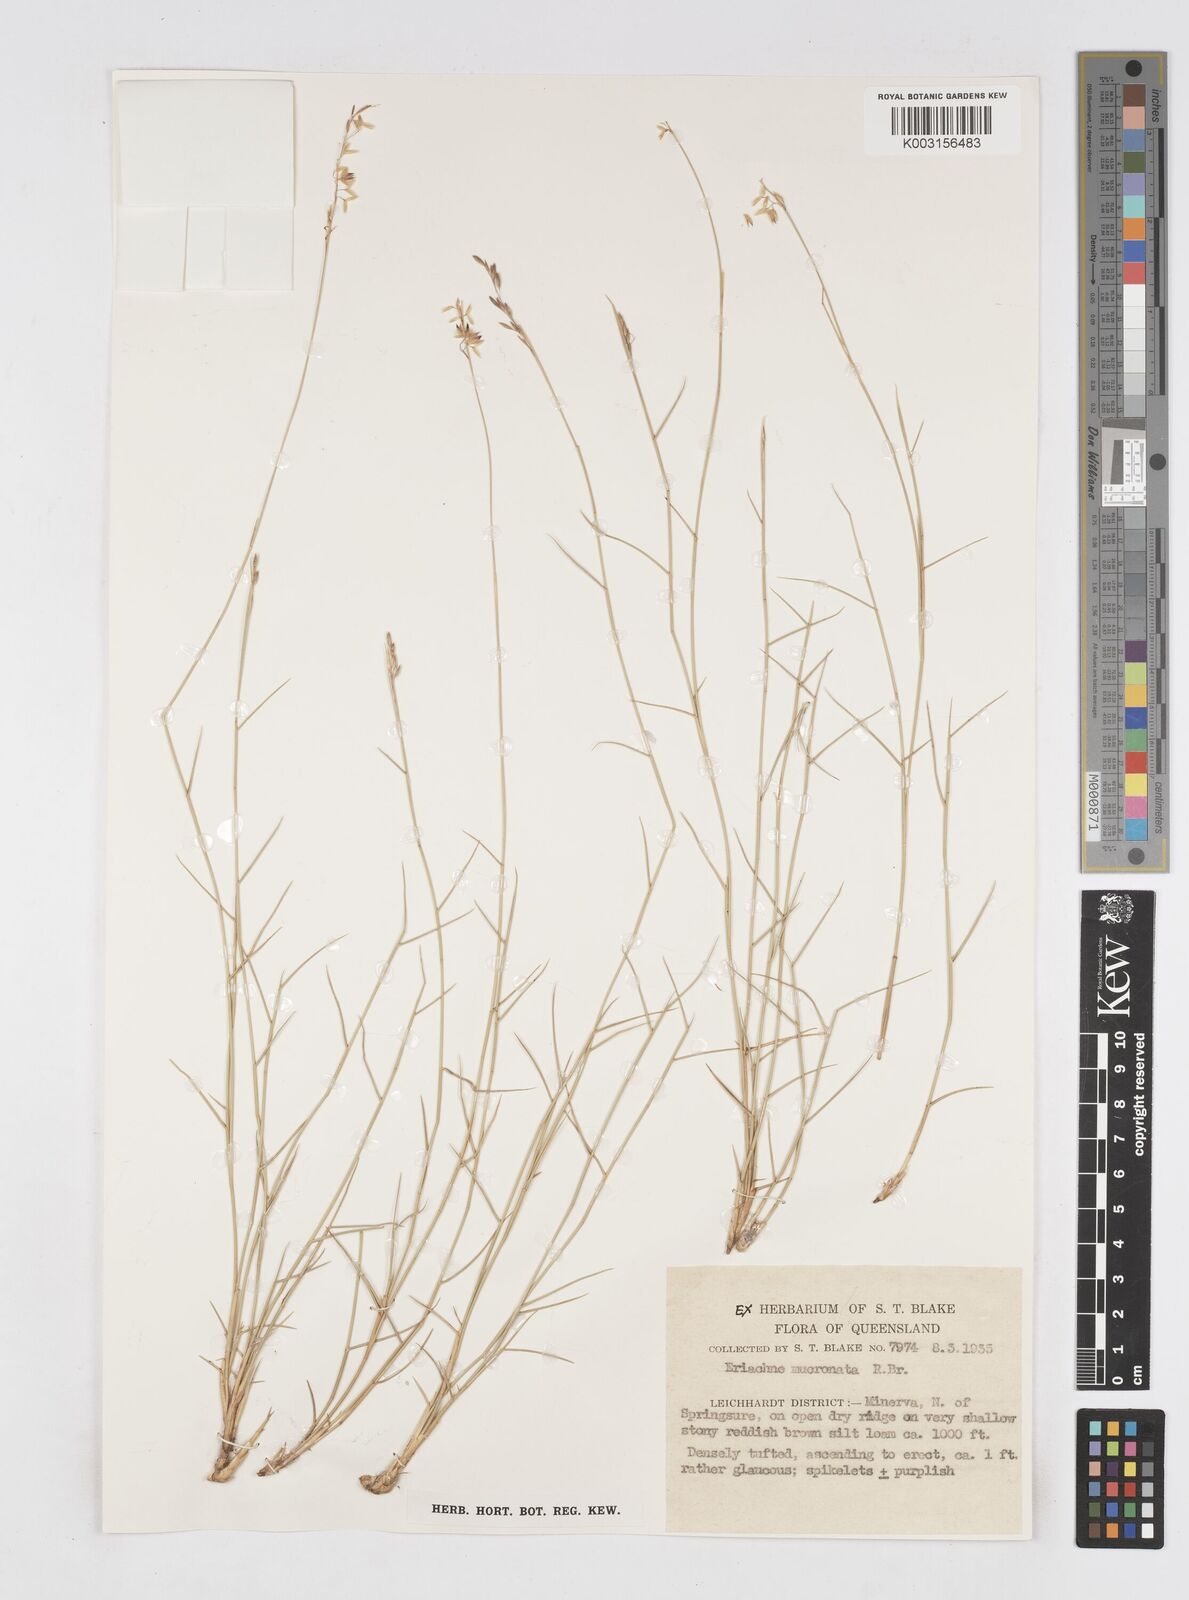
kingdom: Plantae
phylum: Tracheophyta
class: Liliopsida
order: Poales
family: Poaceae
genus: Eriachne
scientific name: Eriachne mucronata
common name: Mountain wanderrie grass
